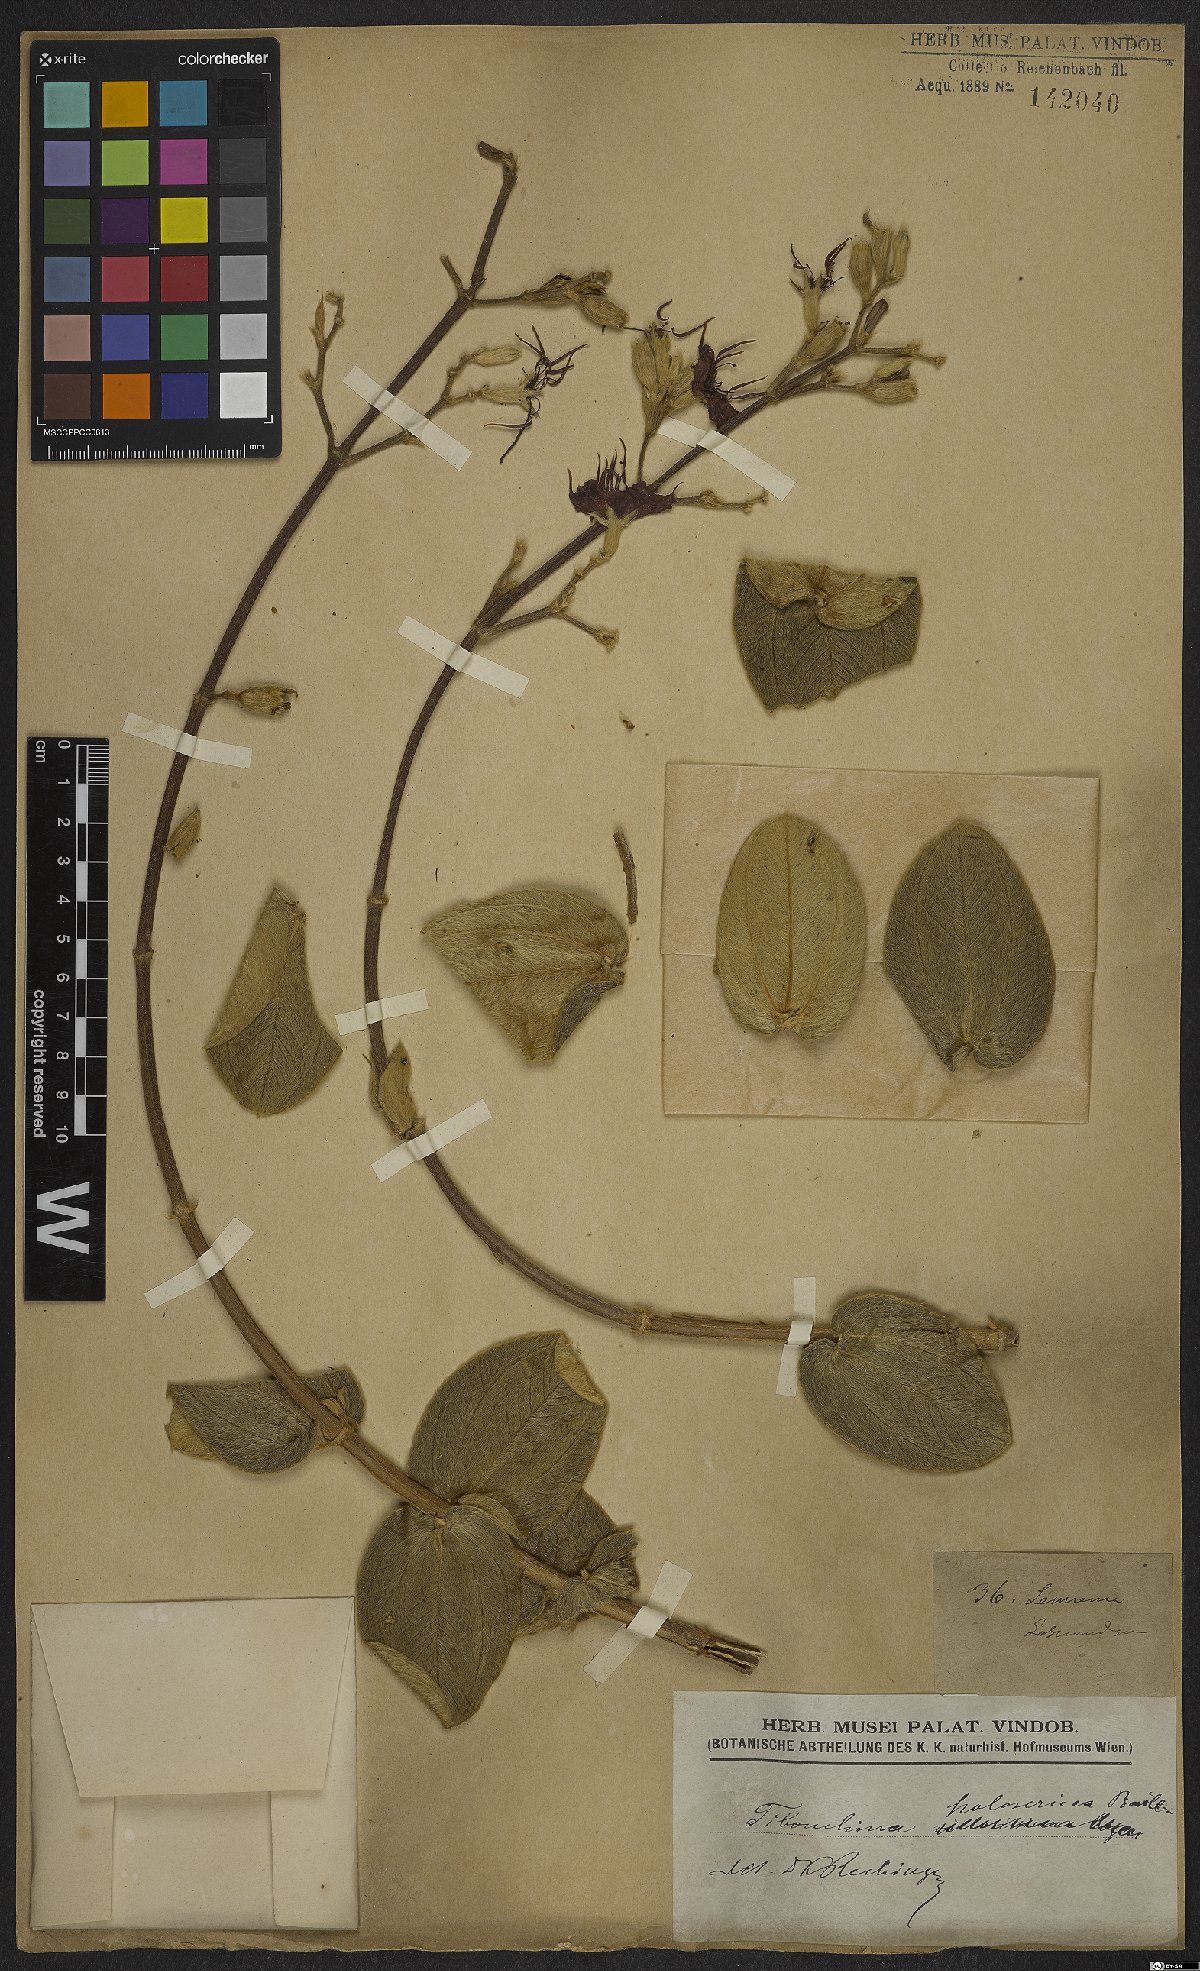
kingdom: Plantae
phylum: Tracheophyta
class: Magnoliopsida
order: Myrtales
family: Melastomataceae
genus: Pleroma
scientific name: Pleroma clavatum
